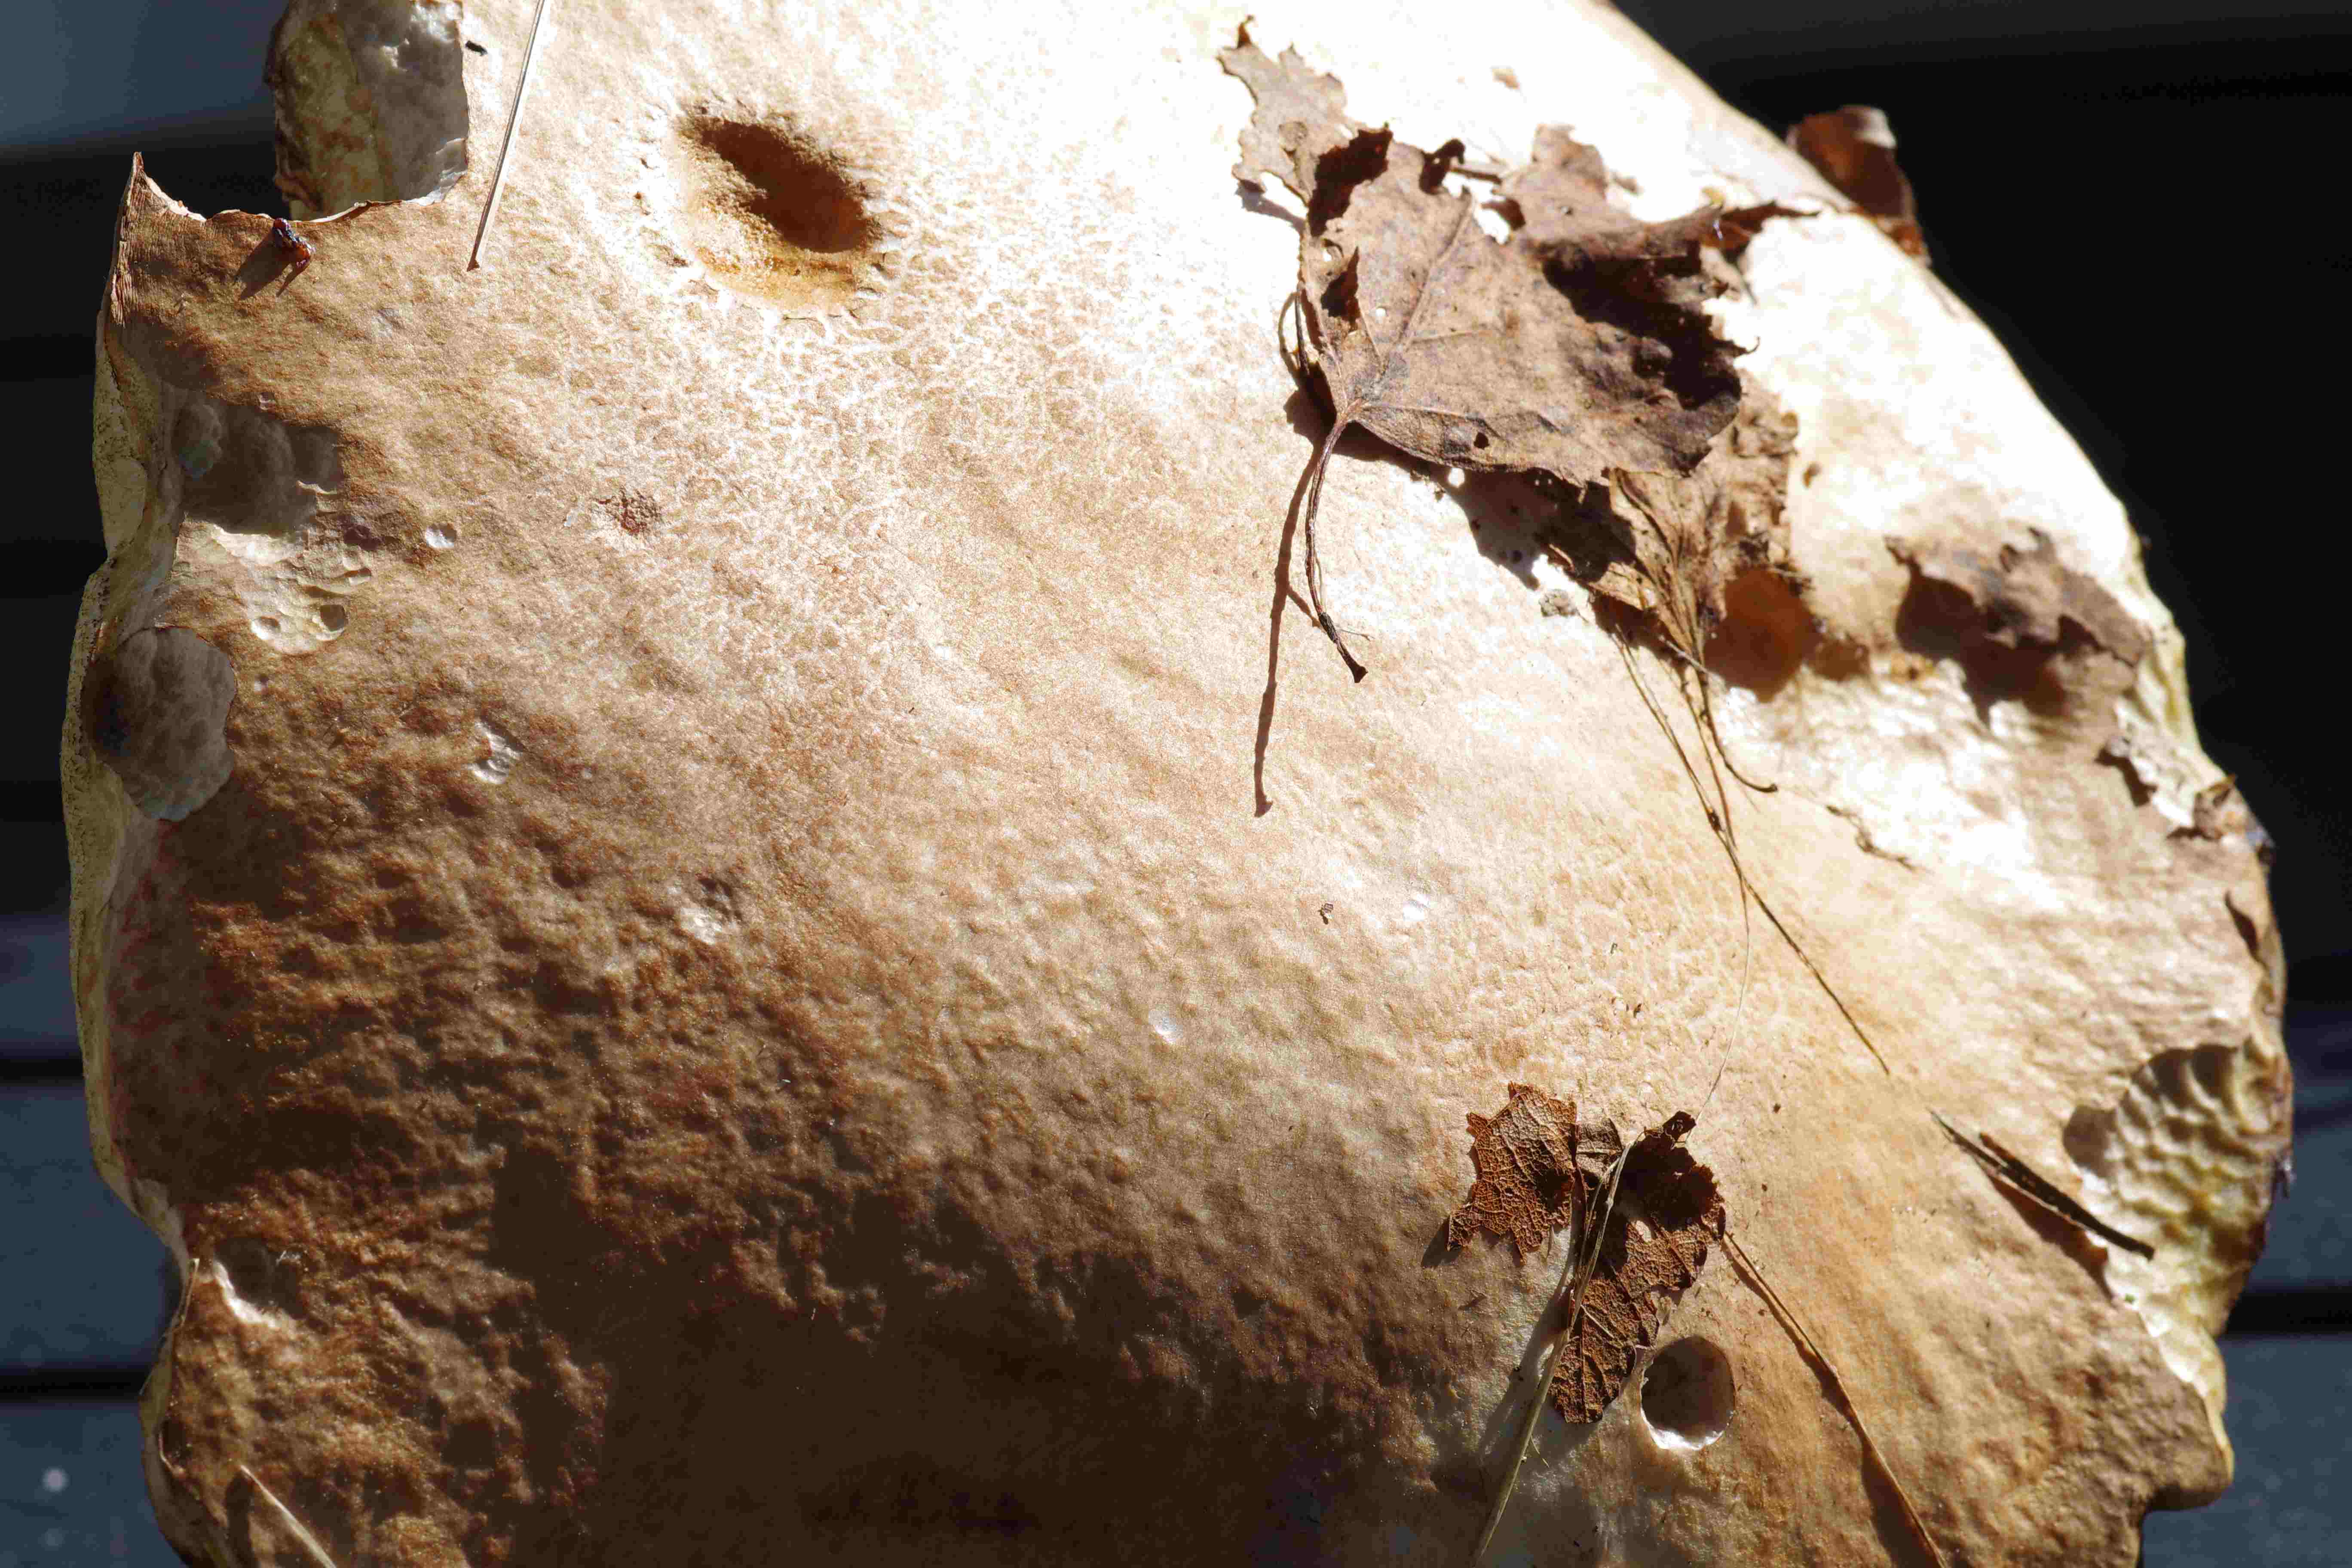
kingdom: Fungi
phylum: Basidiomycota
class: Agaricomycetes
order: Boletales
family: Boletaceae
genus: Leccinum
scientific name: Leccinum
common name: skælrørhat
